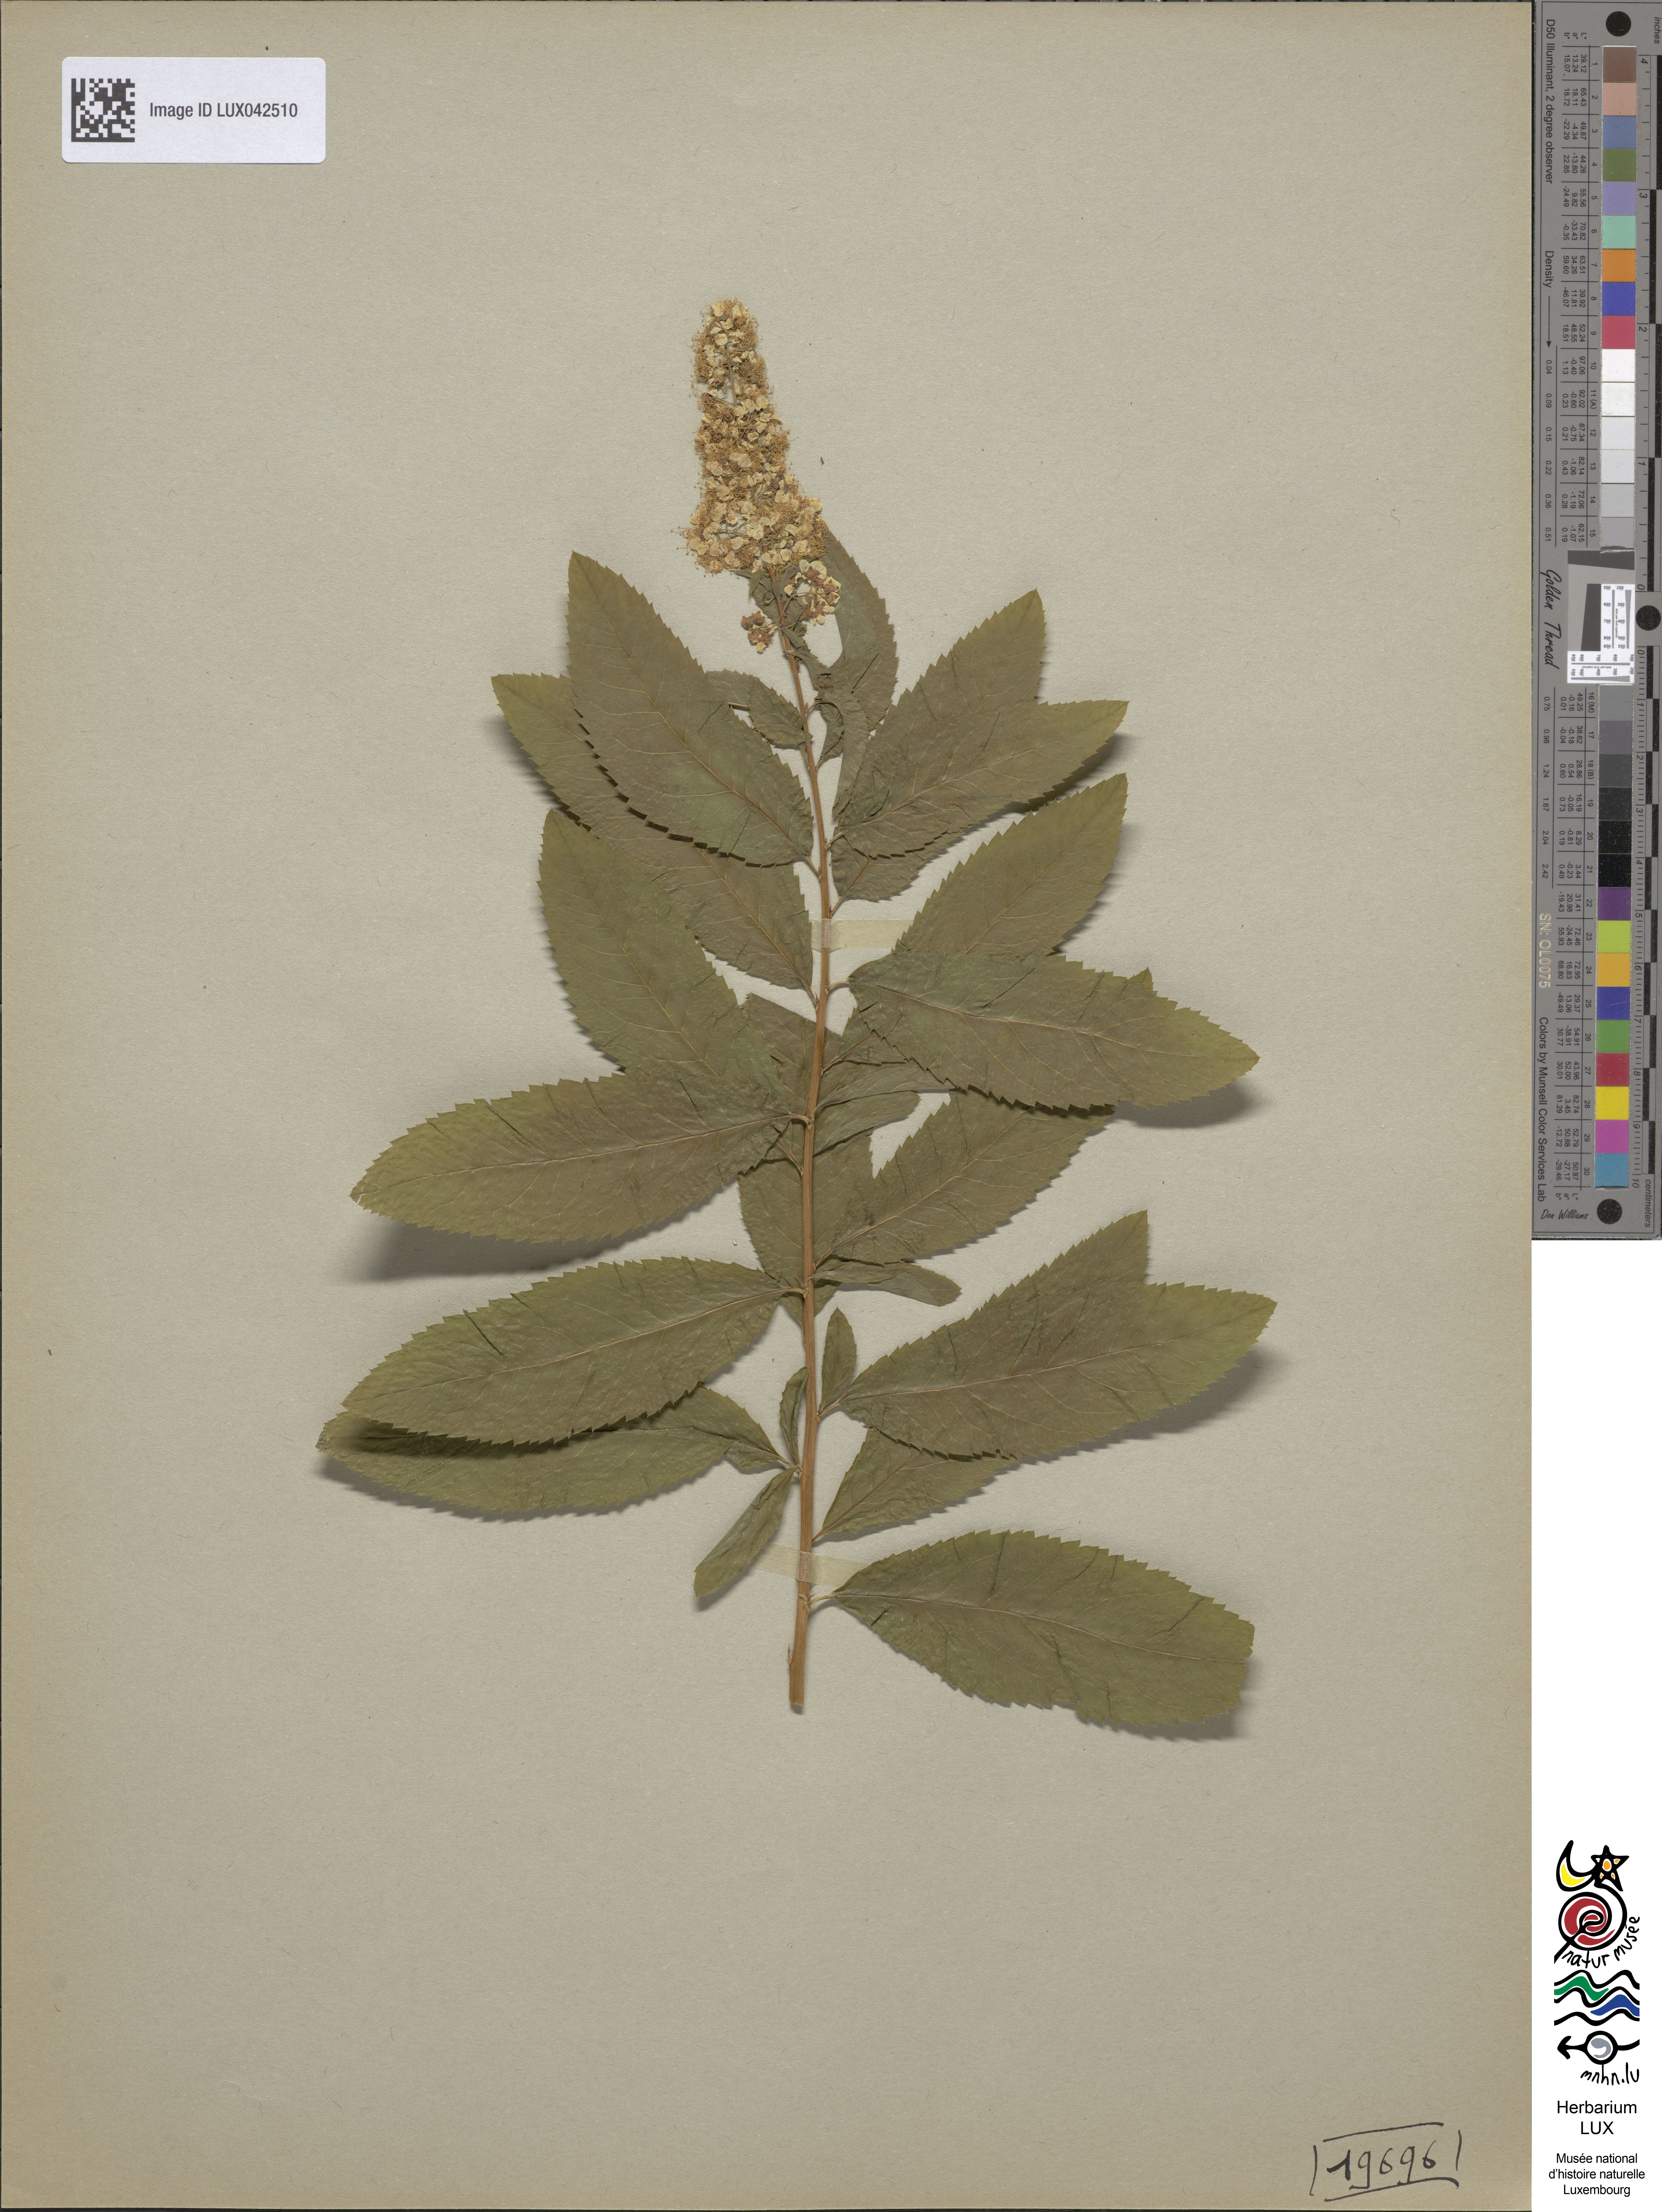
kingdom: Plantae
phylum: Tracheophyta
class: Magnoliopsida
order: Rosales
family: Rosaceae
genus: Spiraea
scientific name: Spiraea alba
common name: Pale bridewort
